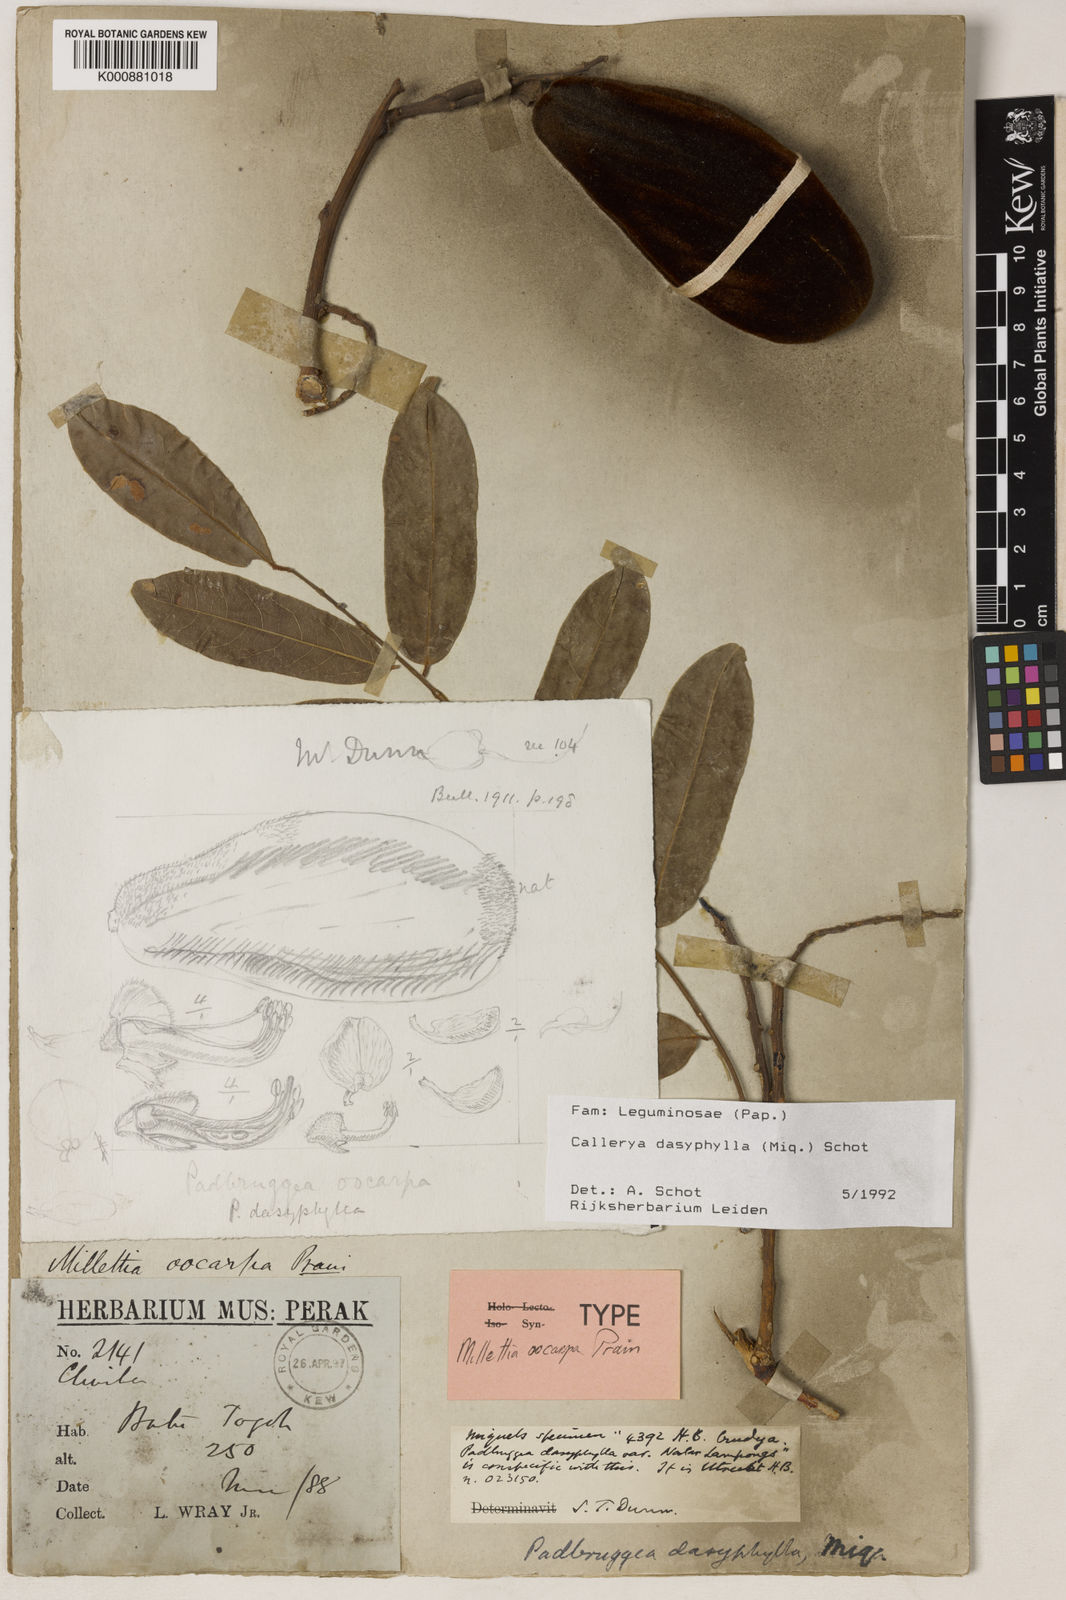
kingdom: Plantae
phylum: Tracheophyta
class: Magnoliopsida
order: Fabales
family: Fabaceae
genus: Padbruggea
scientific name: Padbruggea dasyphylla
